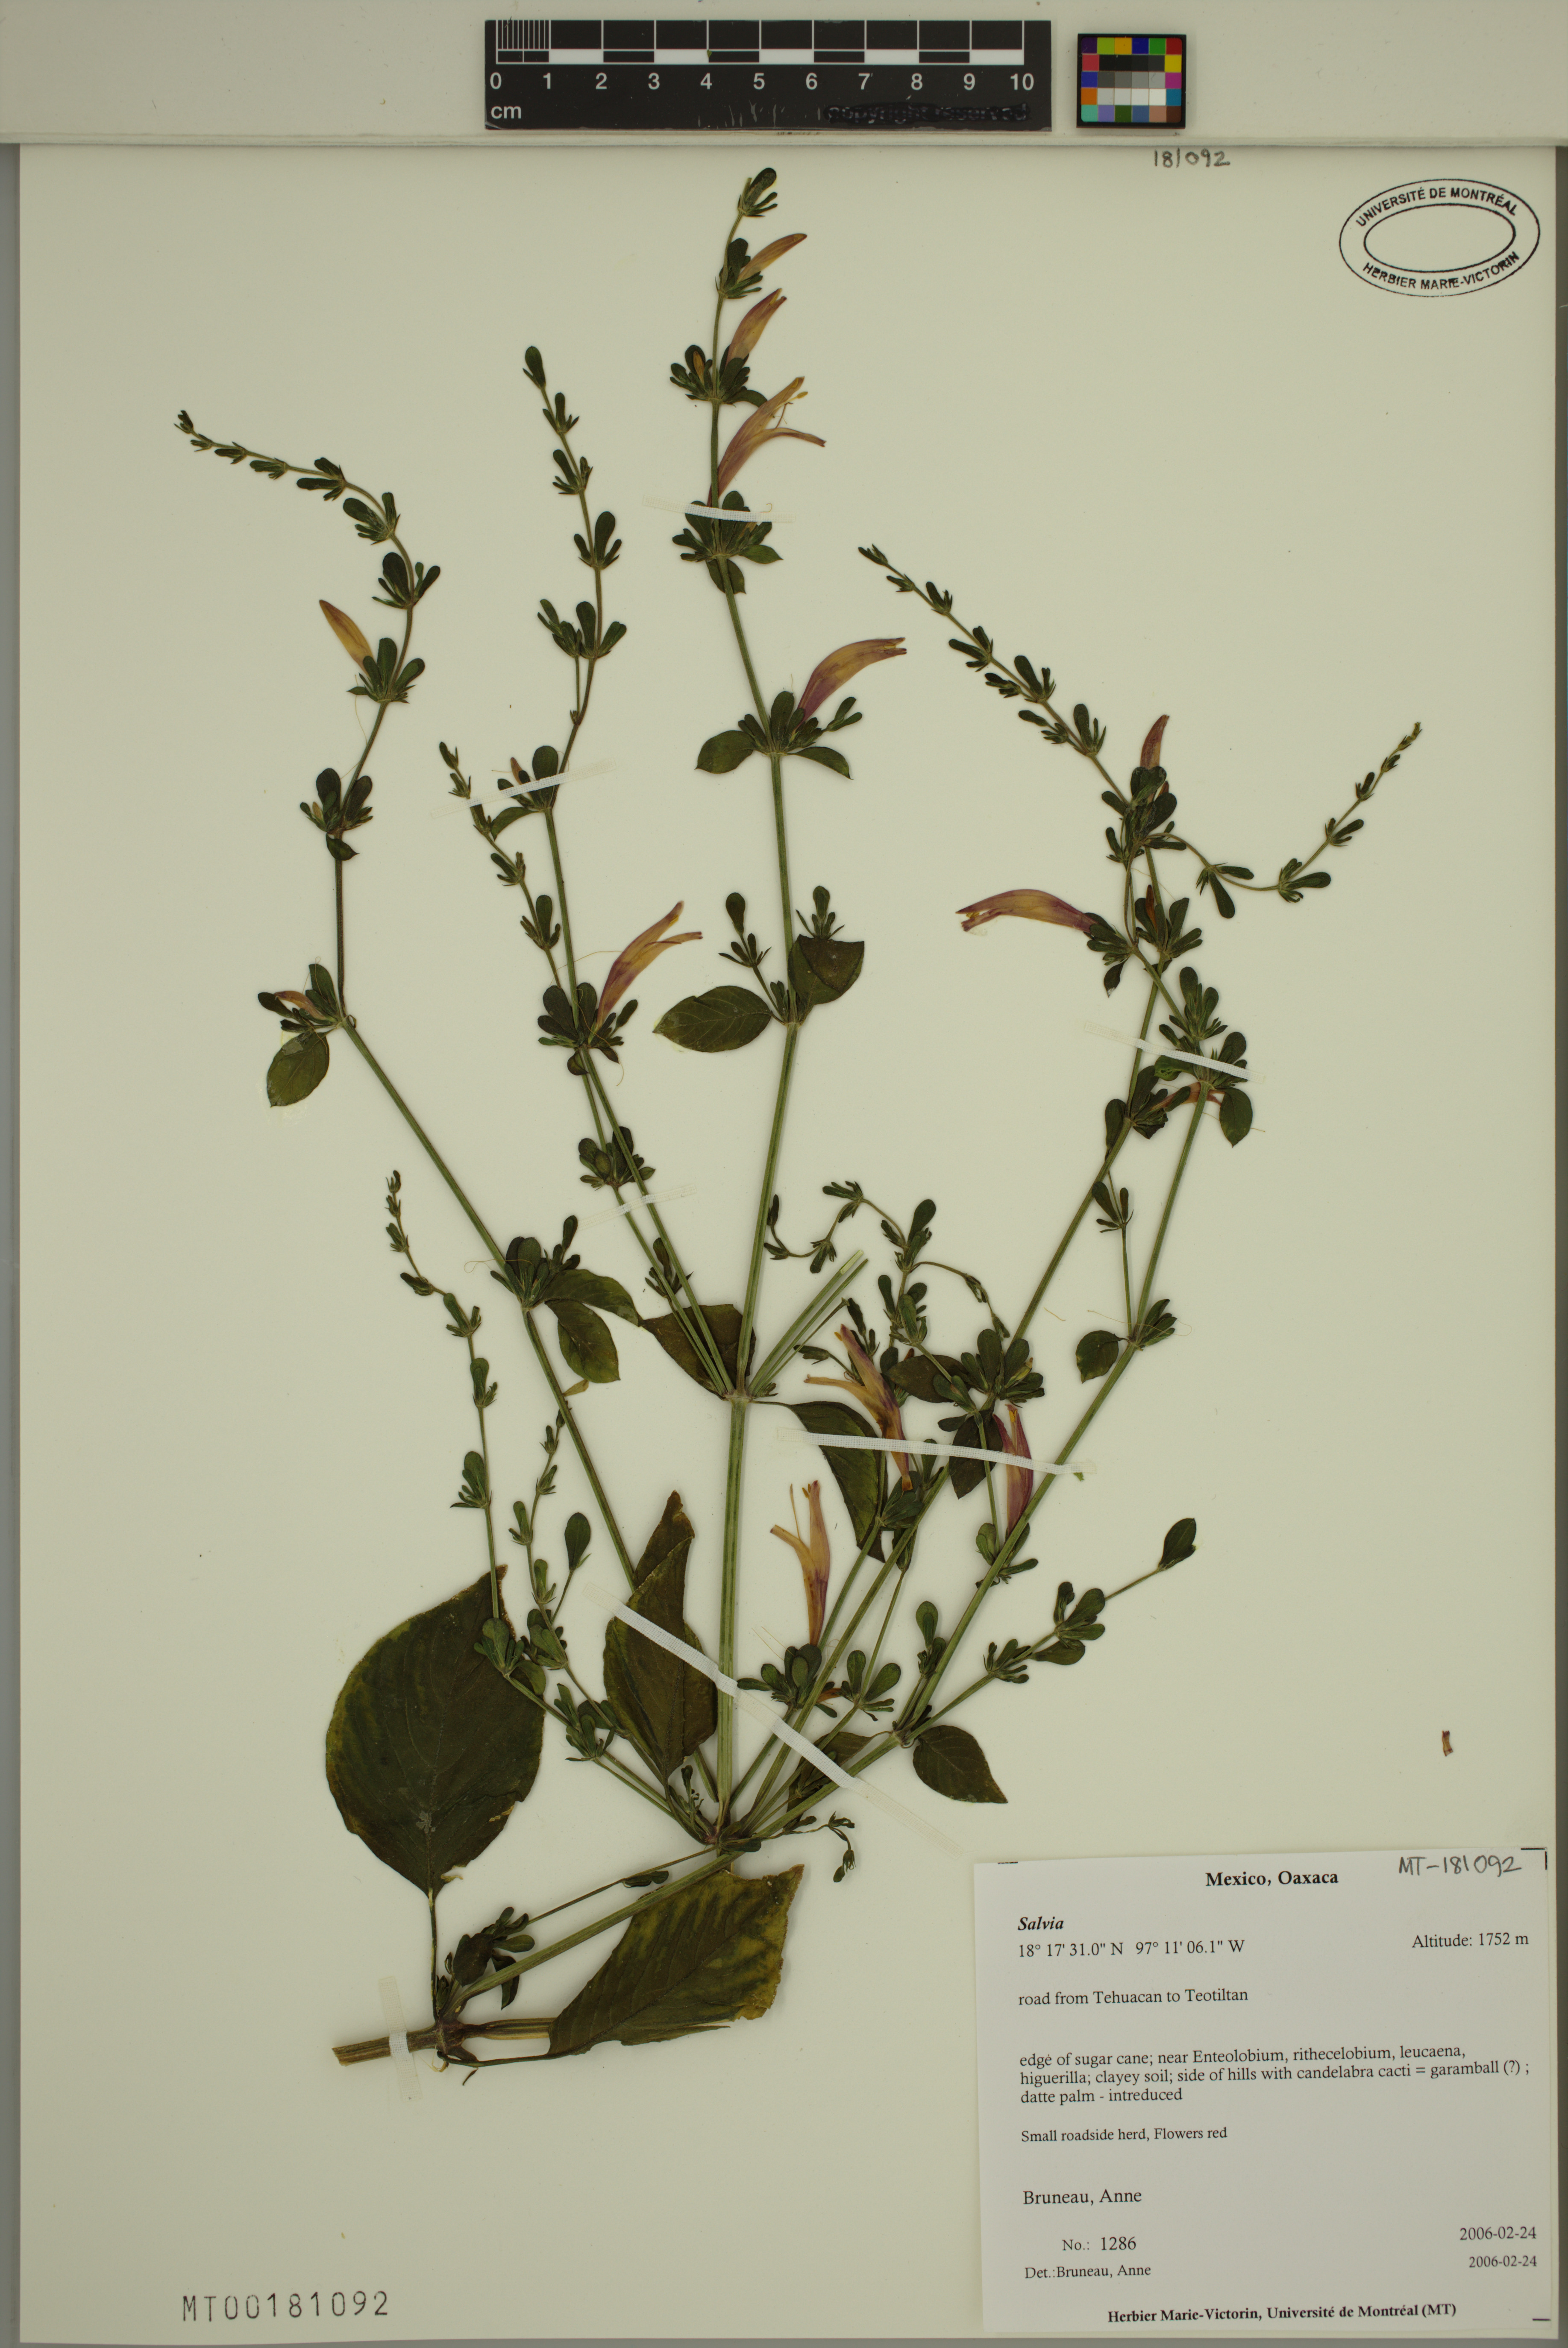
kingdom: Plantae
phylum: Tracheophyta
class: Magnoliopsida
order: Lamiales
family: Lamiaceae
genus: Salvia
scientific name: Salvia
